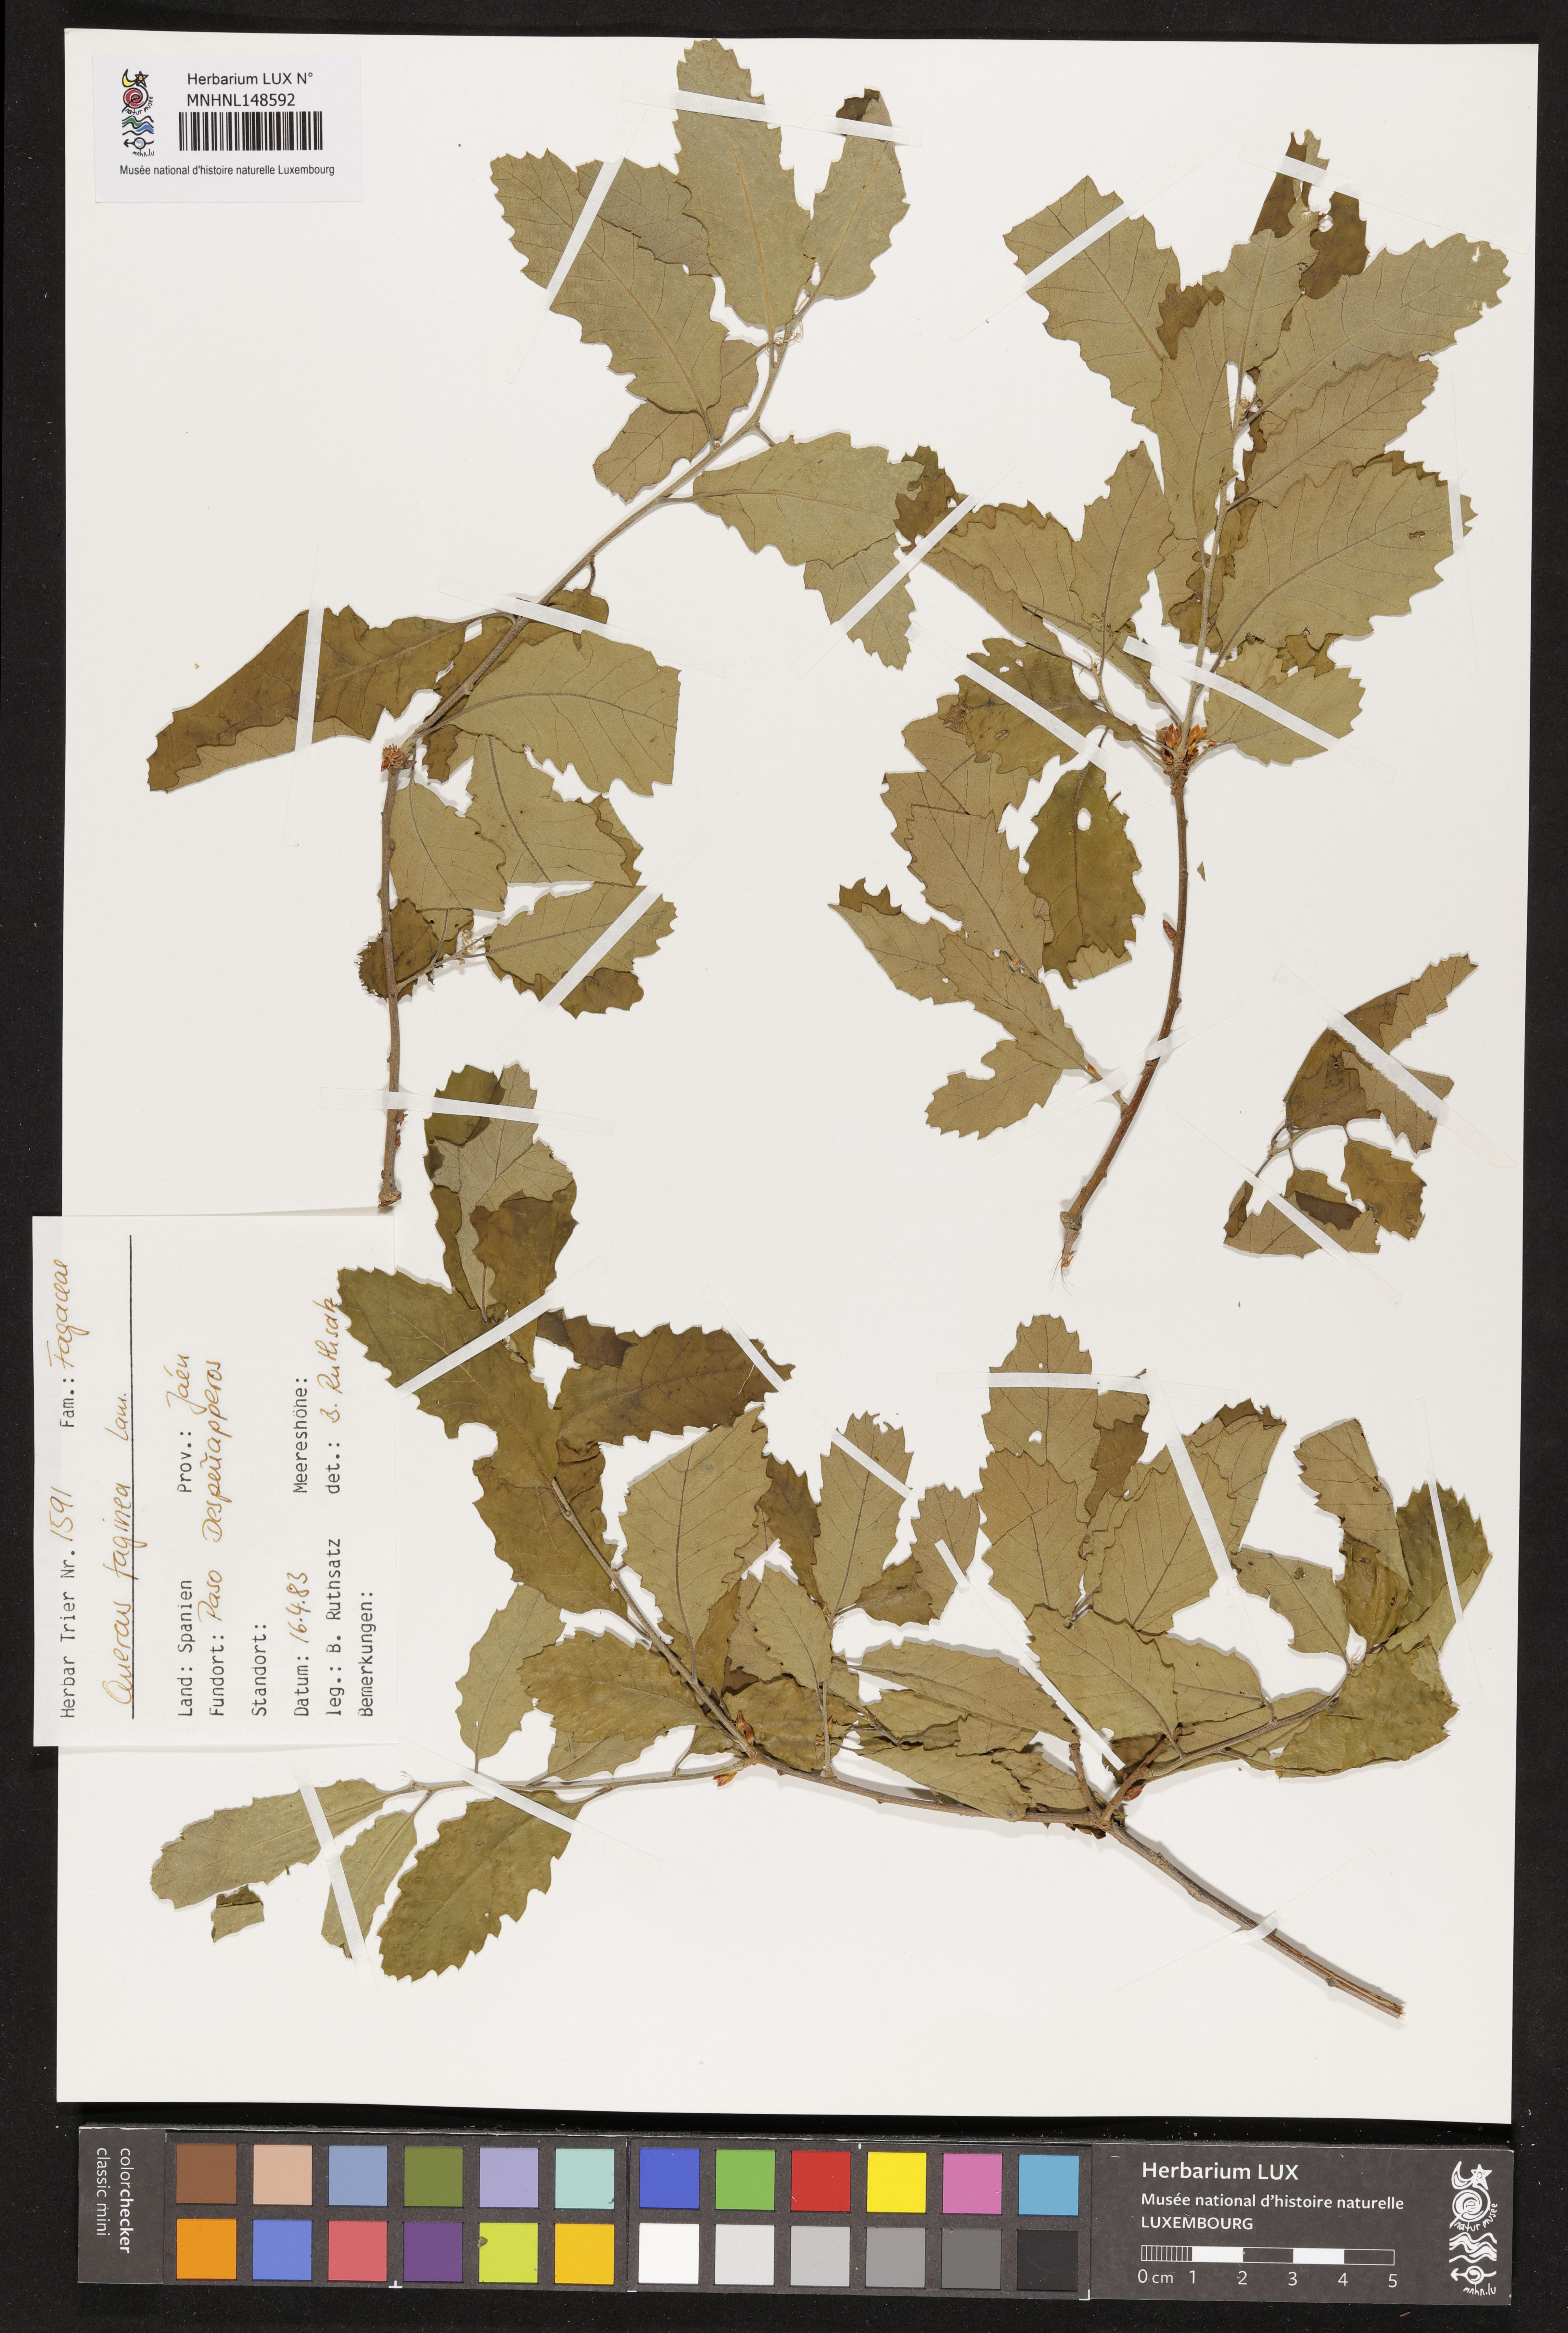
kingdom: Plantae
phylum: Tracheophyta
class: Magnoliopsida
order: Fagales
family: Fagaceae
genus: Quercus
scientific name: Quercus faginea
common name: Gall oak tree
